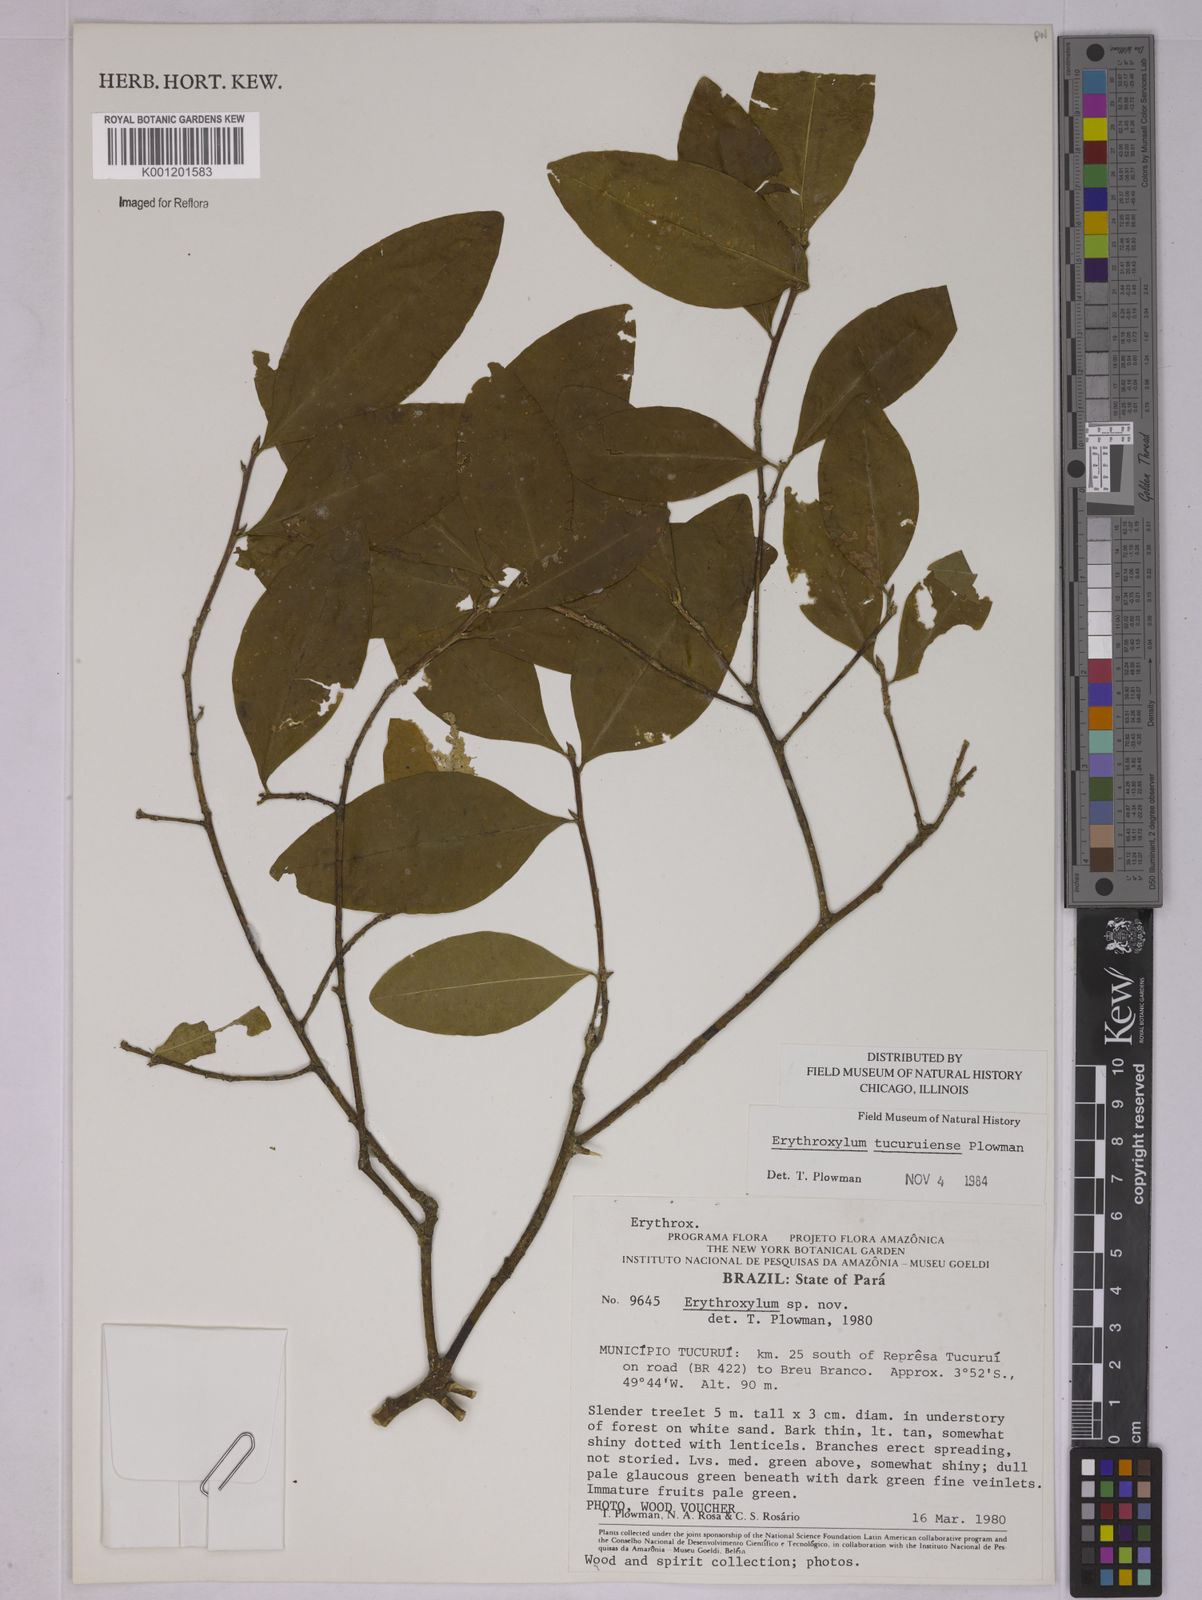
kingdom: Plantae
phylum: Tracheophyta
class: Magnoliopsida
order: Malpighiales
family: Erythroxylaceae
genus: Erythroxylum
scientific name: Erythroxylum tucuruiense
